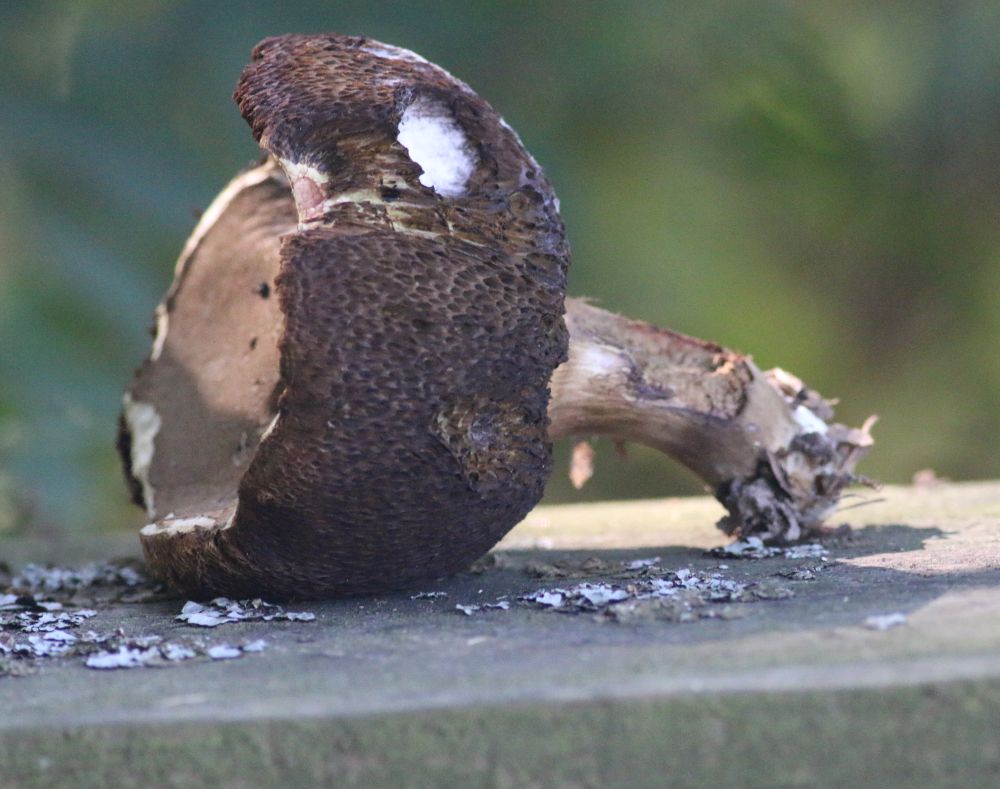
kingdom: Fungi
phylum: Basidiomycota
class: Agaricomycetes
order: Boletales
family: Boletaceae
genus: Boletus
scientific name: Boletus
